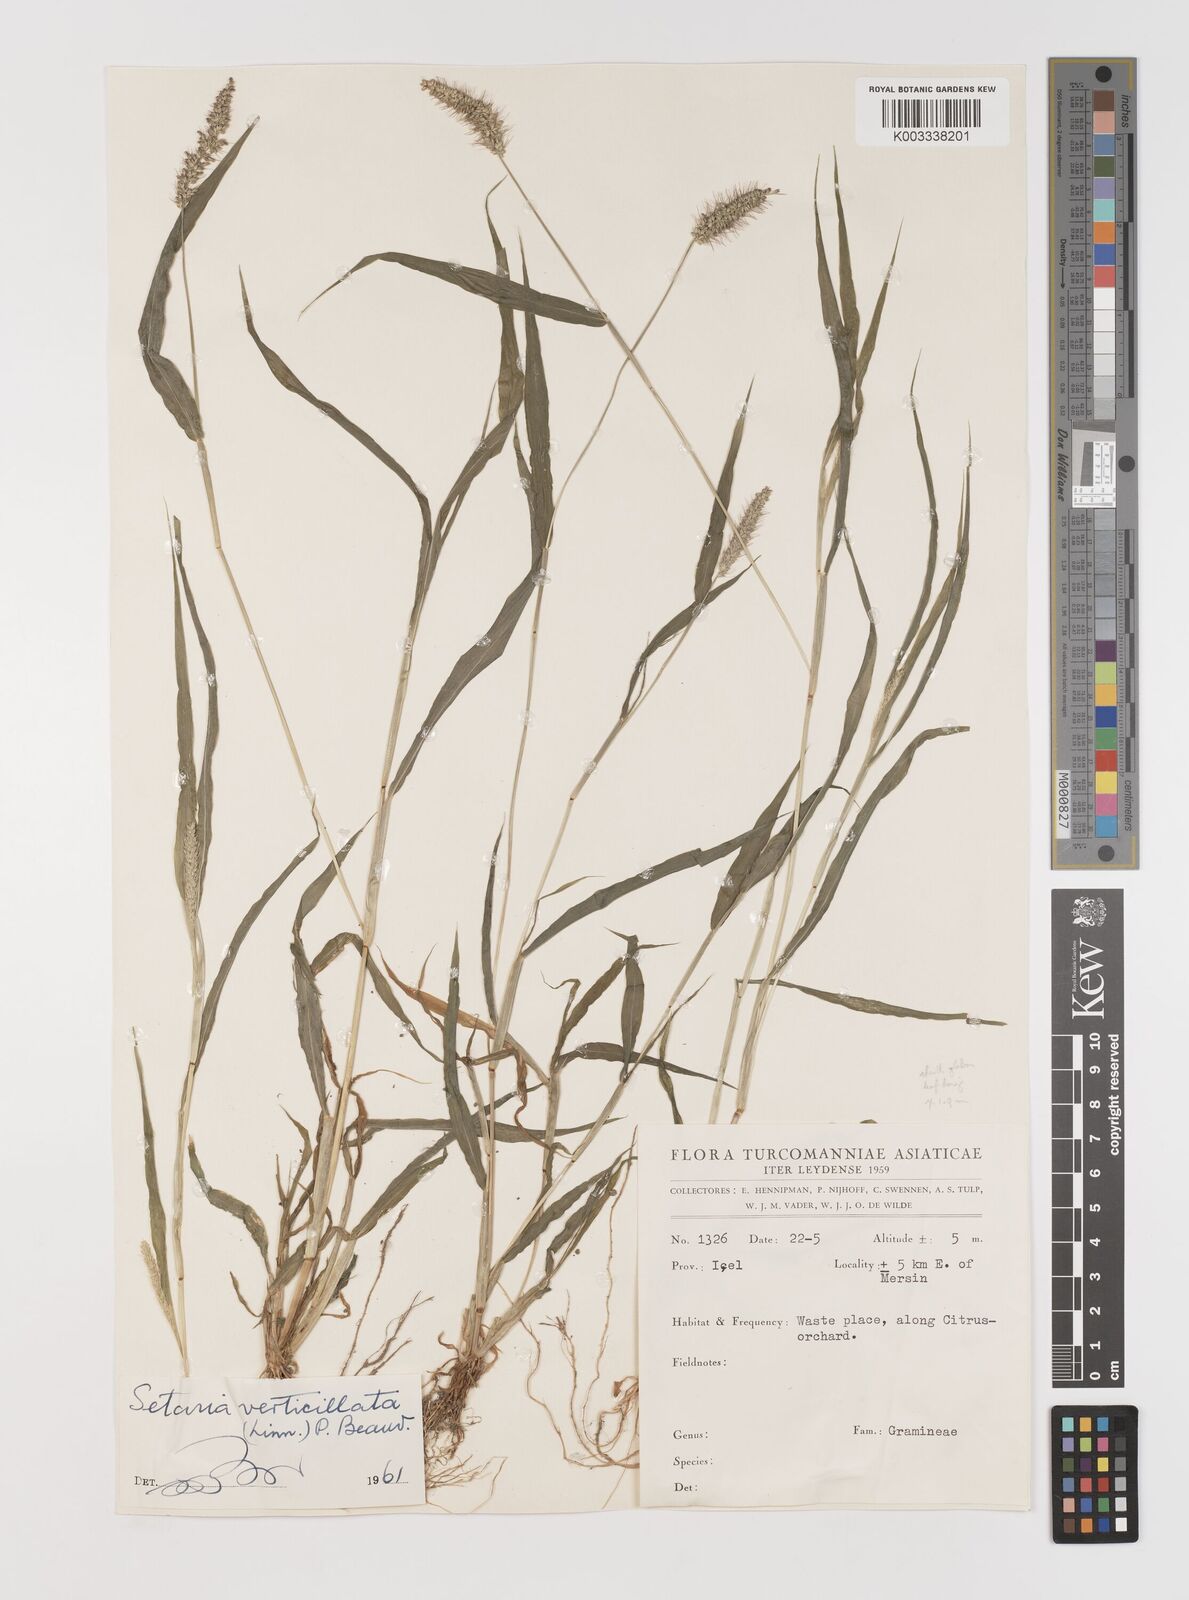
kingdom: Plantae
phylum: Tracheophyta
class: Liliopsida
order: Poales
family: Poaceae
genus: Setaria
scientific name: Setaria verticillata
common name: Hooked bristlegrass
